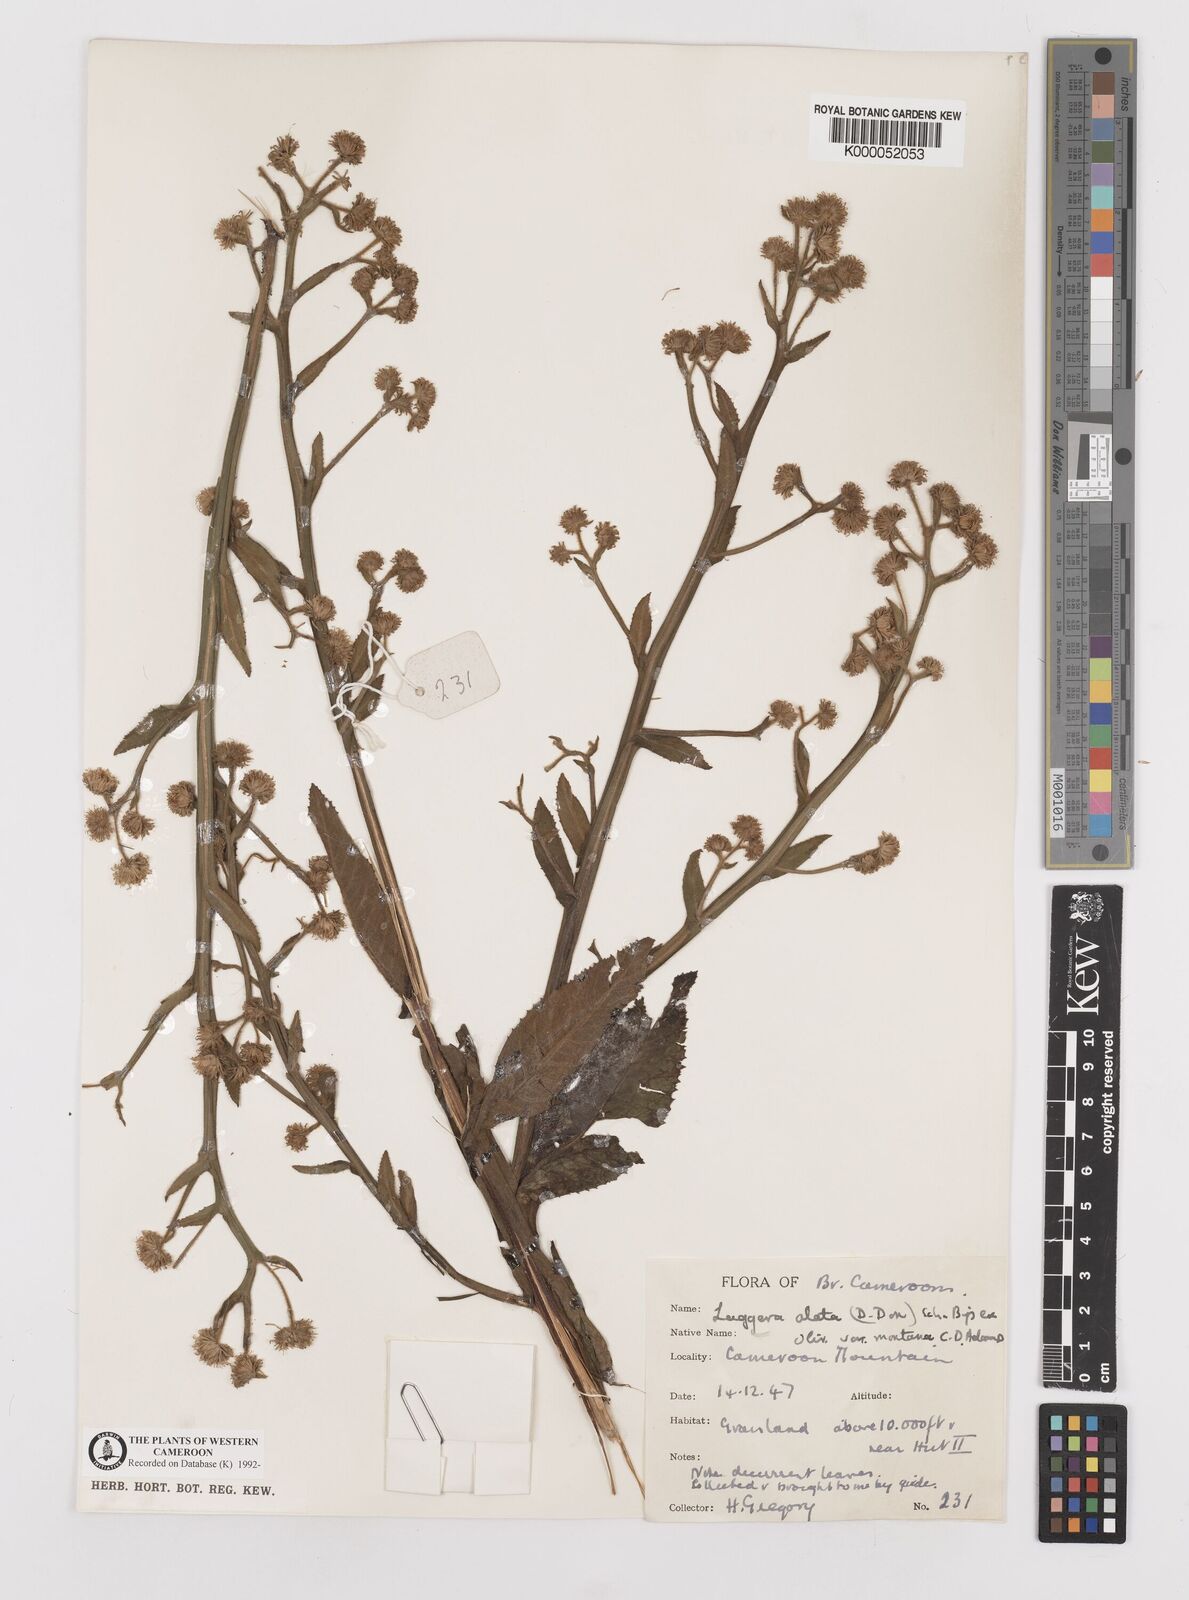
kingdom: Plantae
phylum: Tracheophyta
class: Magnoliopsida
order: Asterales
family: Asteraceae
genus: Laggera
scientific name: Laggera crispata
